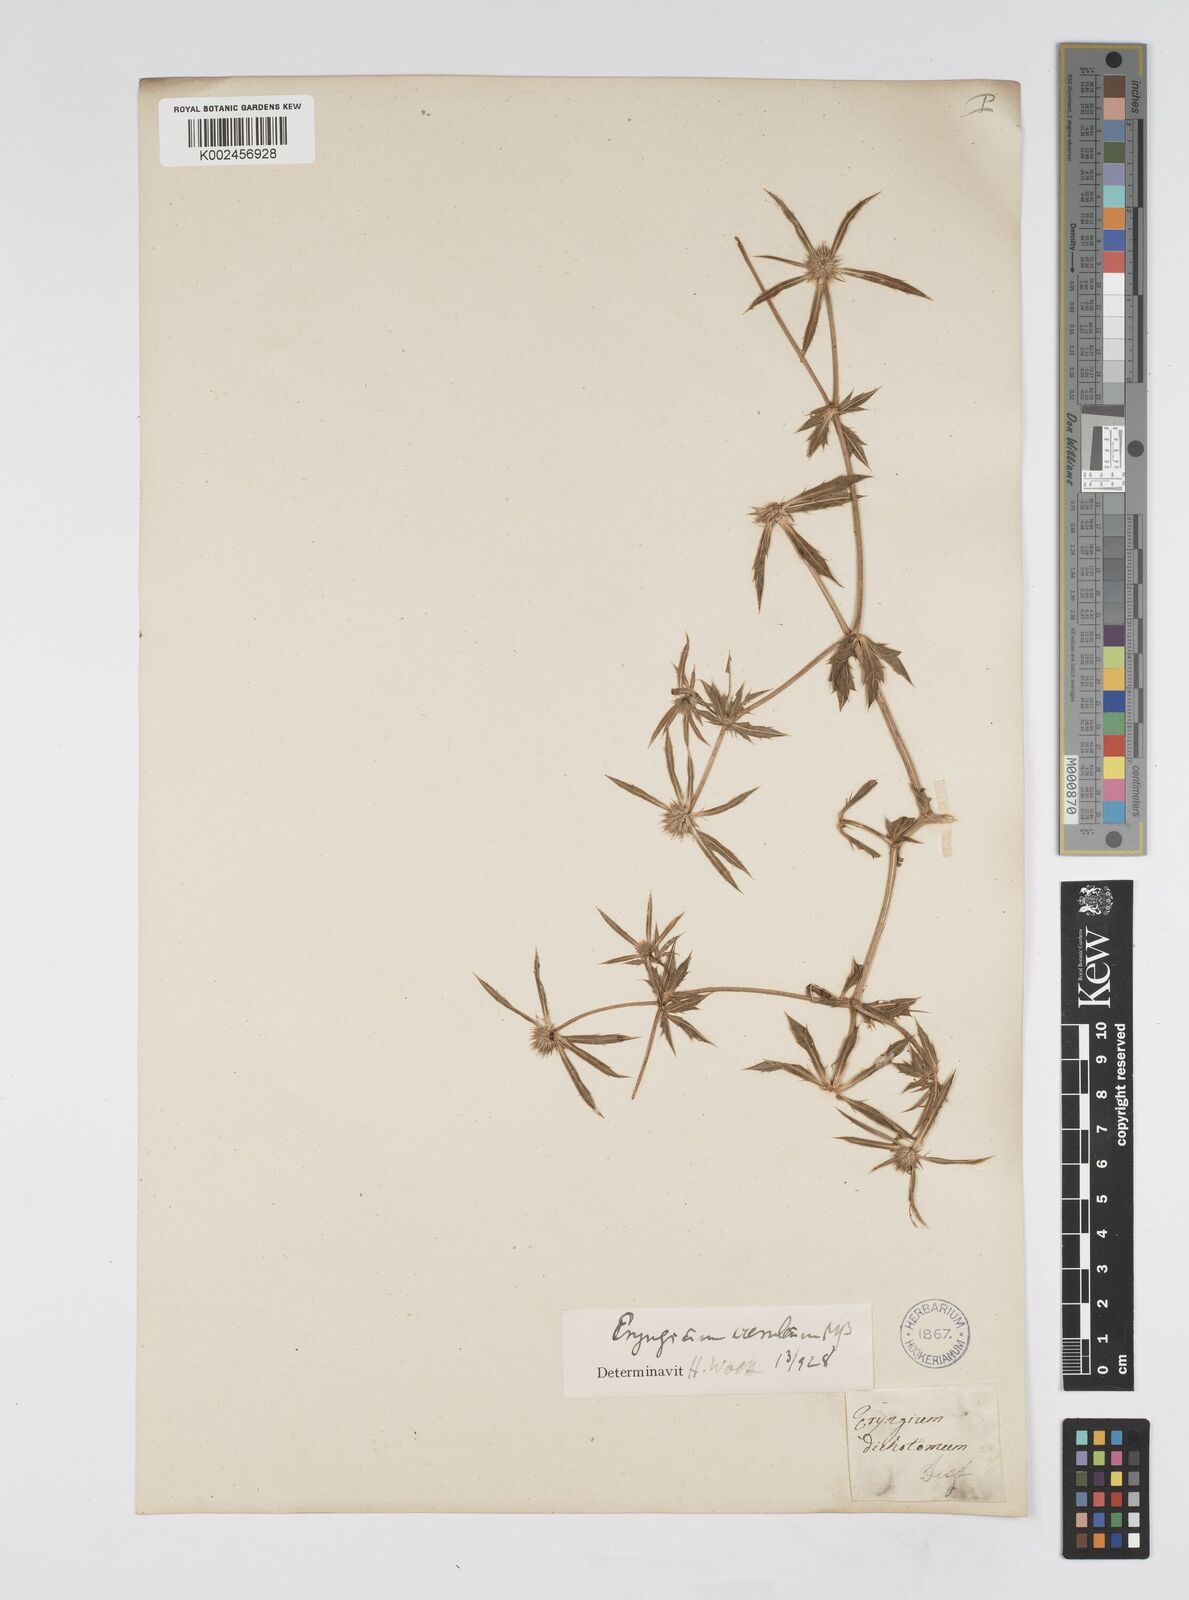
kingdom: Plantae
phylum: Tracheophyta
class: Magnoliopsida
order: Apiales
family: Apiaceae
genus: Eryngium
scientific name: Eryngium caeruleum
